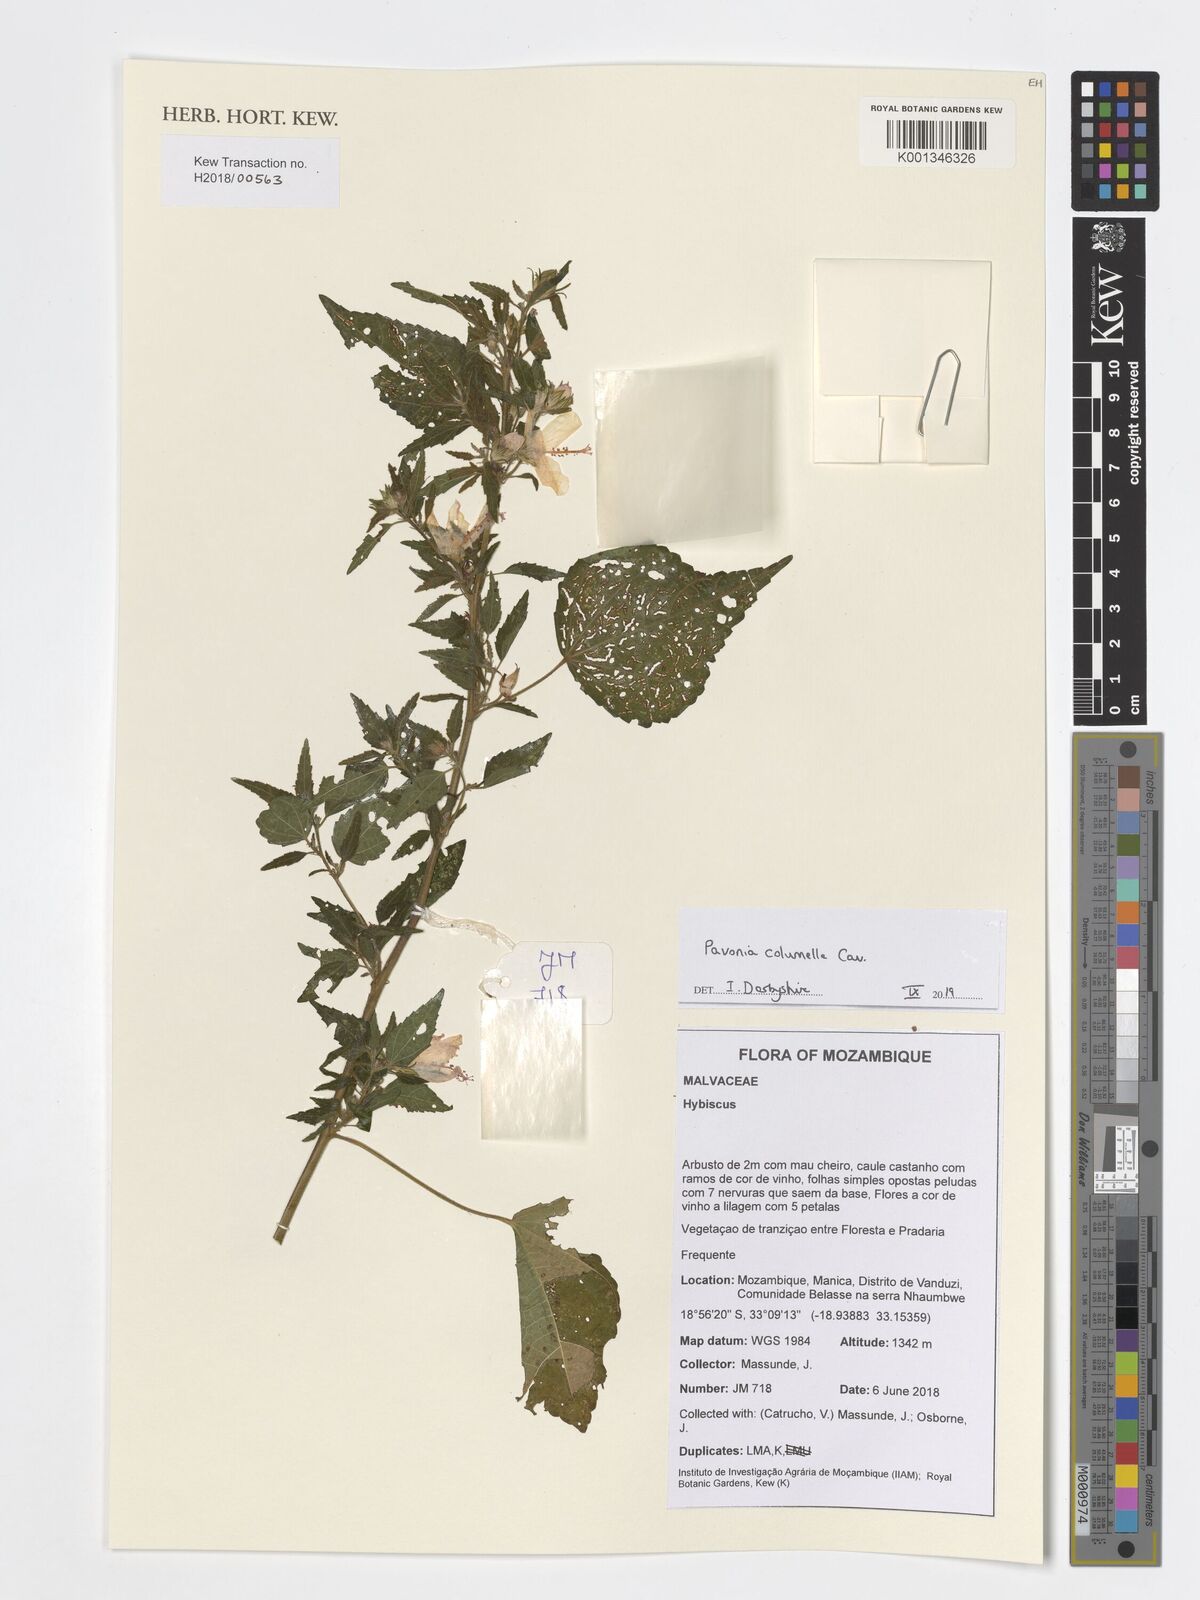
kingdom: Plantae
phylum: Tracheophyta
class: Magnoliopsida
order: Malvales
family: Malvaceae
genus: Pavonia
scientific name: Pavonia columella
